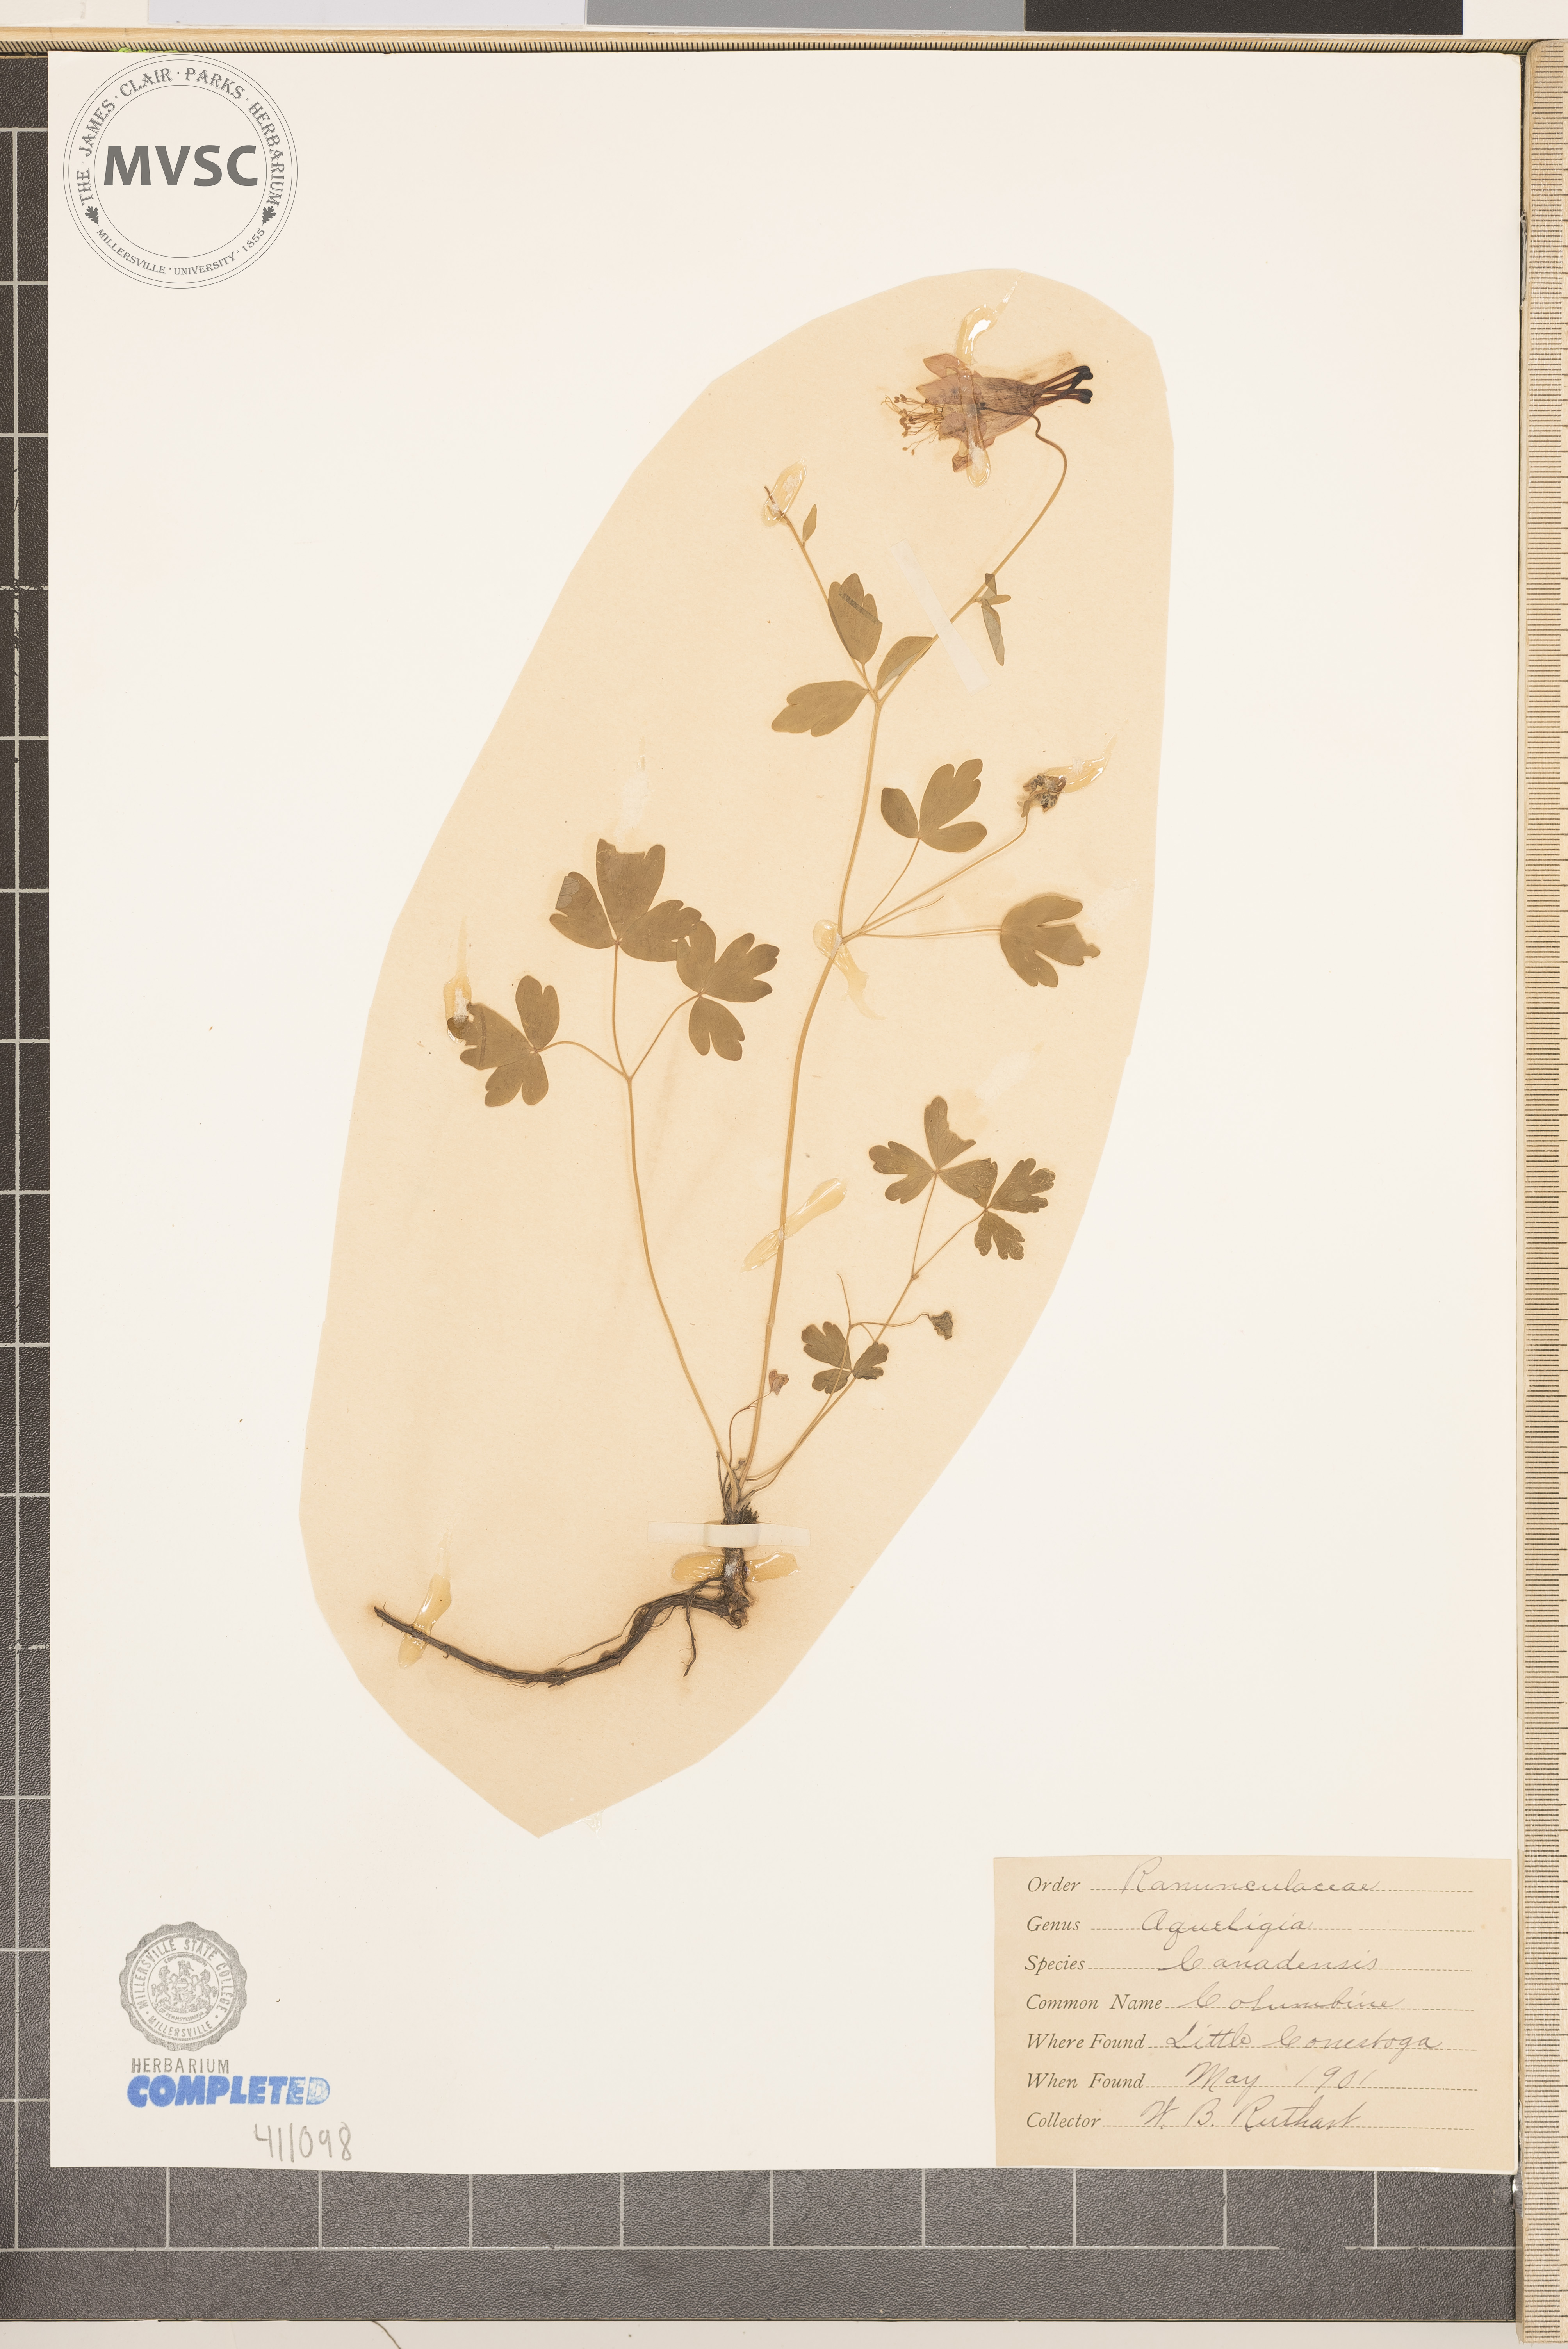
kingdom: Plantae
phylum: Tracheophyta
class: Magnoliopsida
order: Ranunculales
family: Ranunculaceae
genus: Aquilegia
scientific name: Aquilegia canadensis
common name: American columbine
